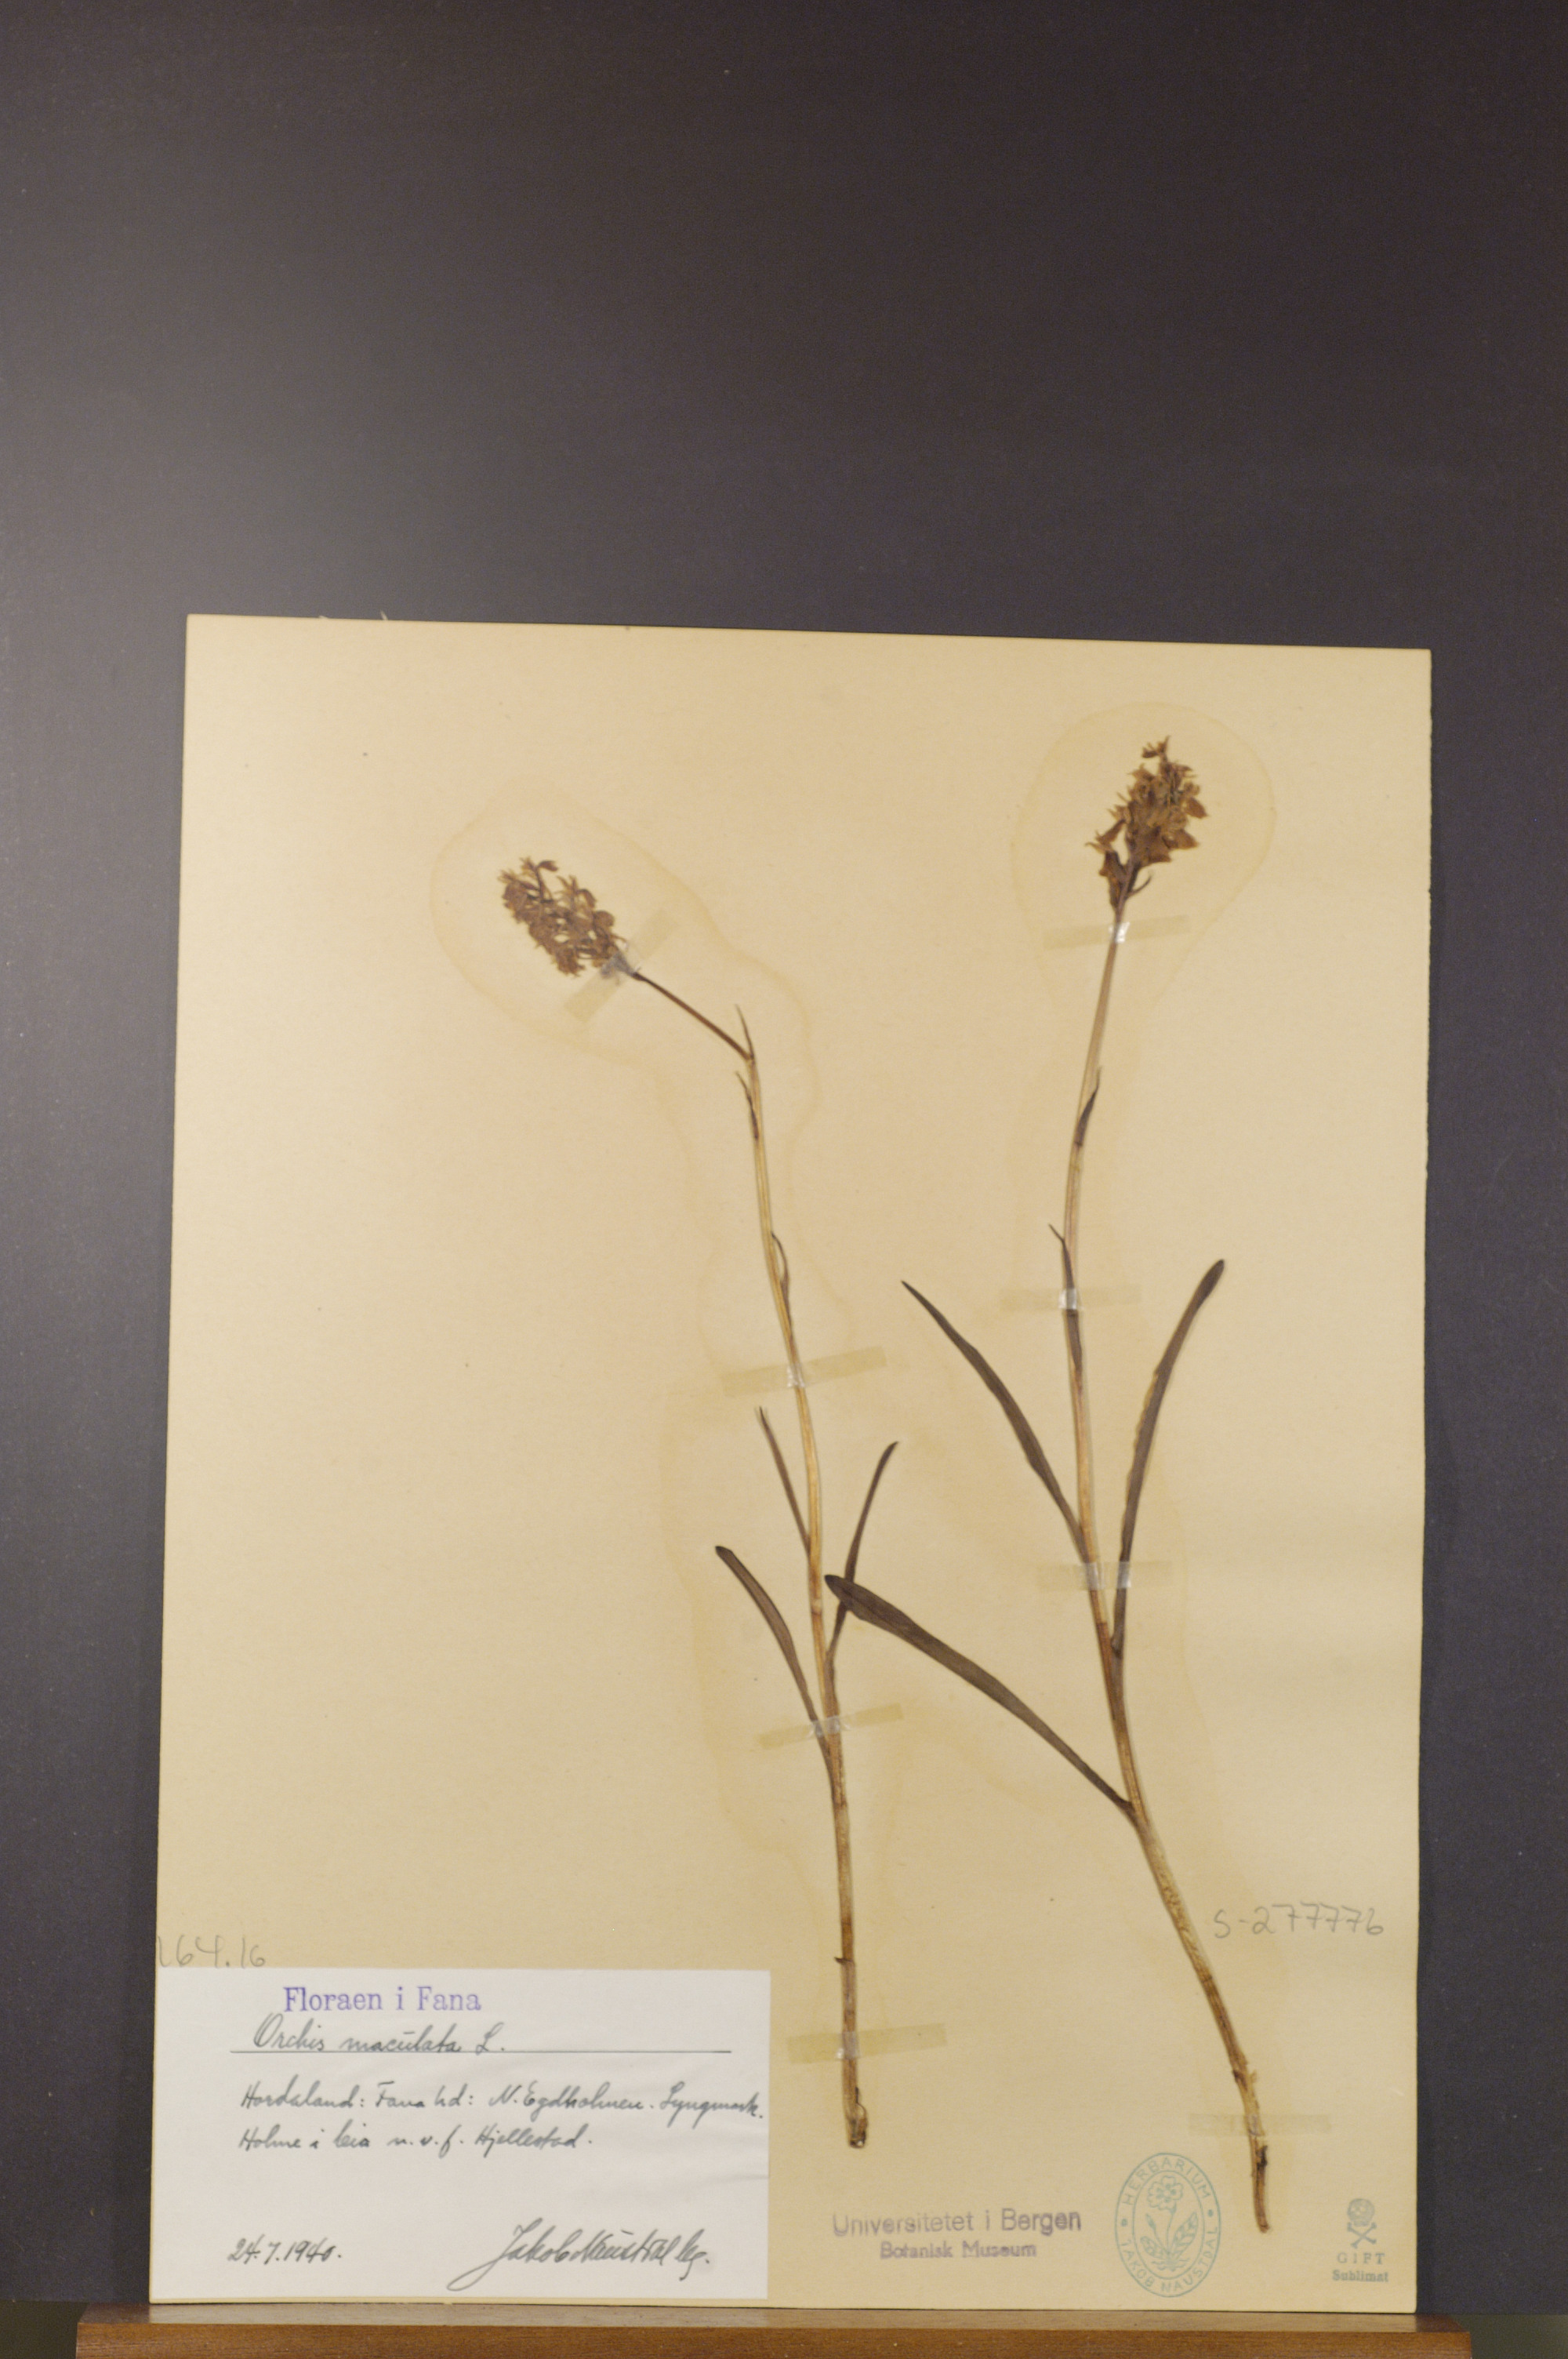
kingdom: Plantae
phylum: Tracheophyta
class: Liliopsida
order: Asparagales
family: Orchidaceae
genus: Dactylorhiza
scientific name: Dactylorhiza maculata
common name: Heath spotted-orchid
